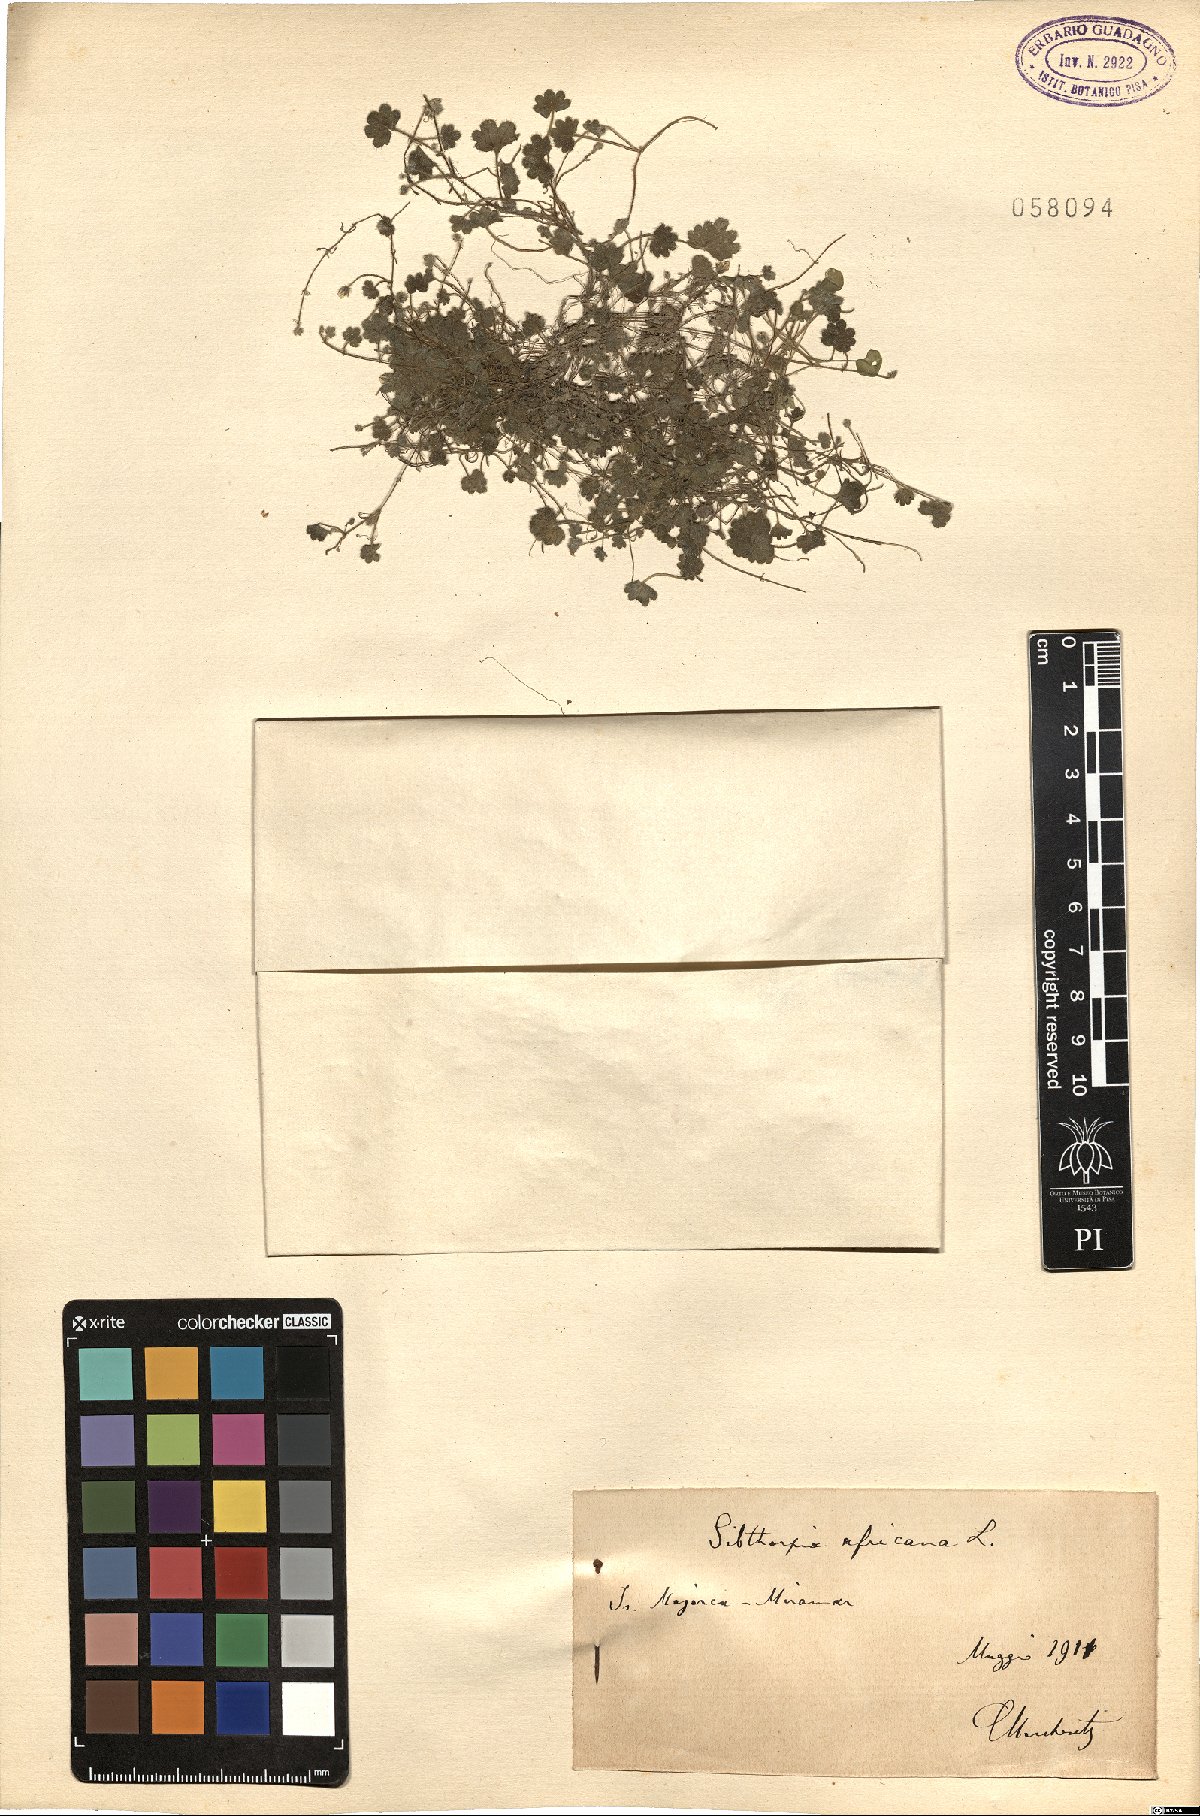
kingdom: Plantae
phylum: Tracheophyta
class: Magnoliopsida
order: Lamiales
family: Plantaginaceae
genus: Sibthorpia
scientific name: Sibthorpia africana
